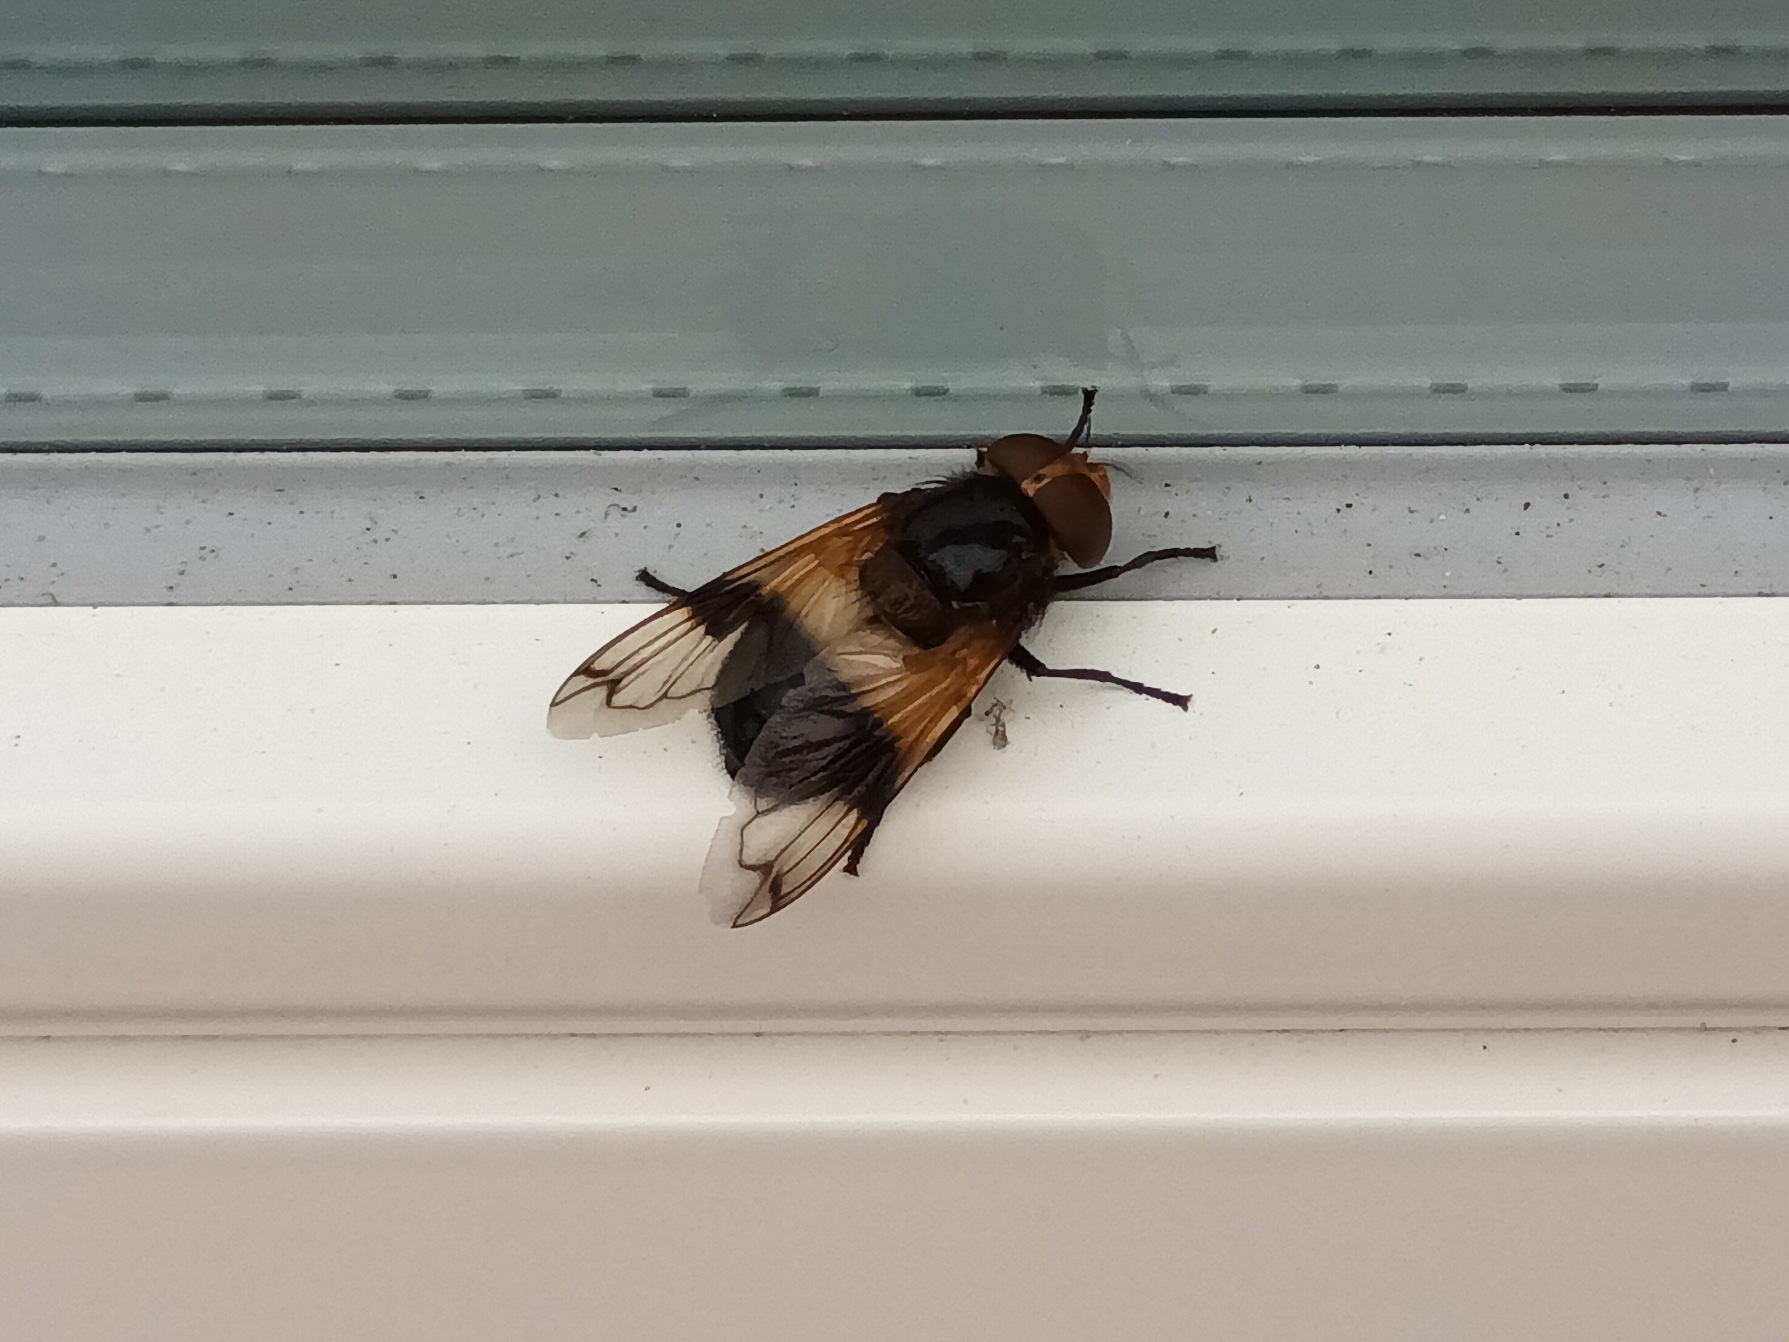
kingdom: Animalia
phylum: Arthropoda
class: Insecta
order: Diptera
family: Syrphidae
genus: Volucella
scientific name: Volucella pellucens
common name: Hvidbåndet humlesvirreflue
